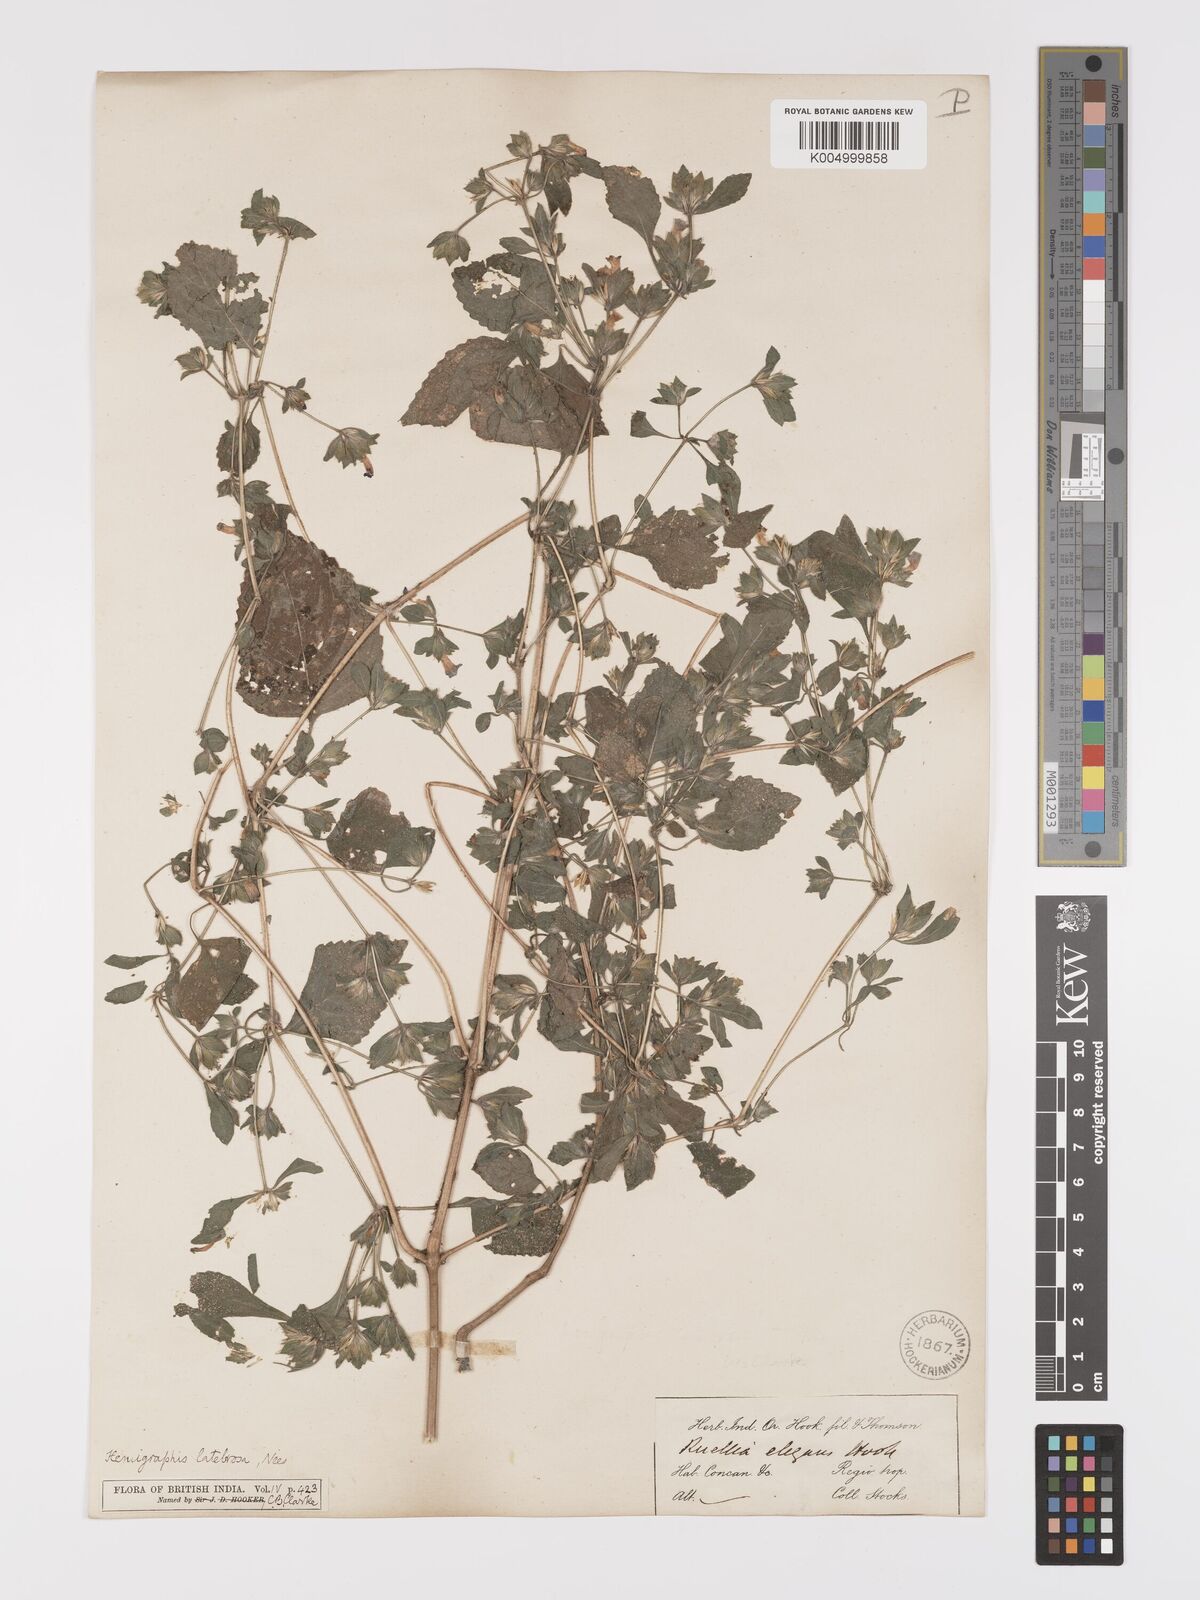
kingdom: Plantae
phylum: Tracheophyta
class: Magnoliopsida
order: Lamiales
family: Acanthaceae
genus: Strobilanthes
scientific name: Strobilanthes pavala
